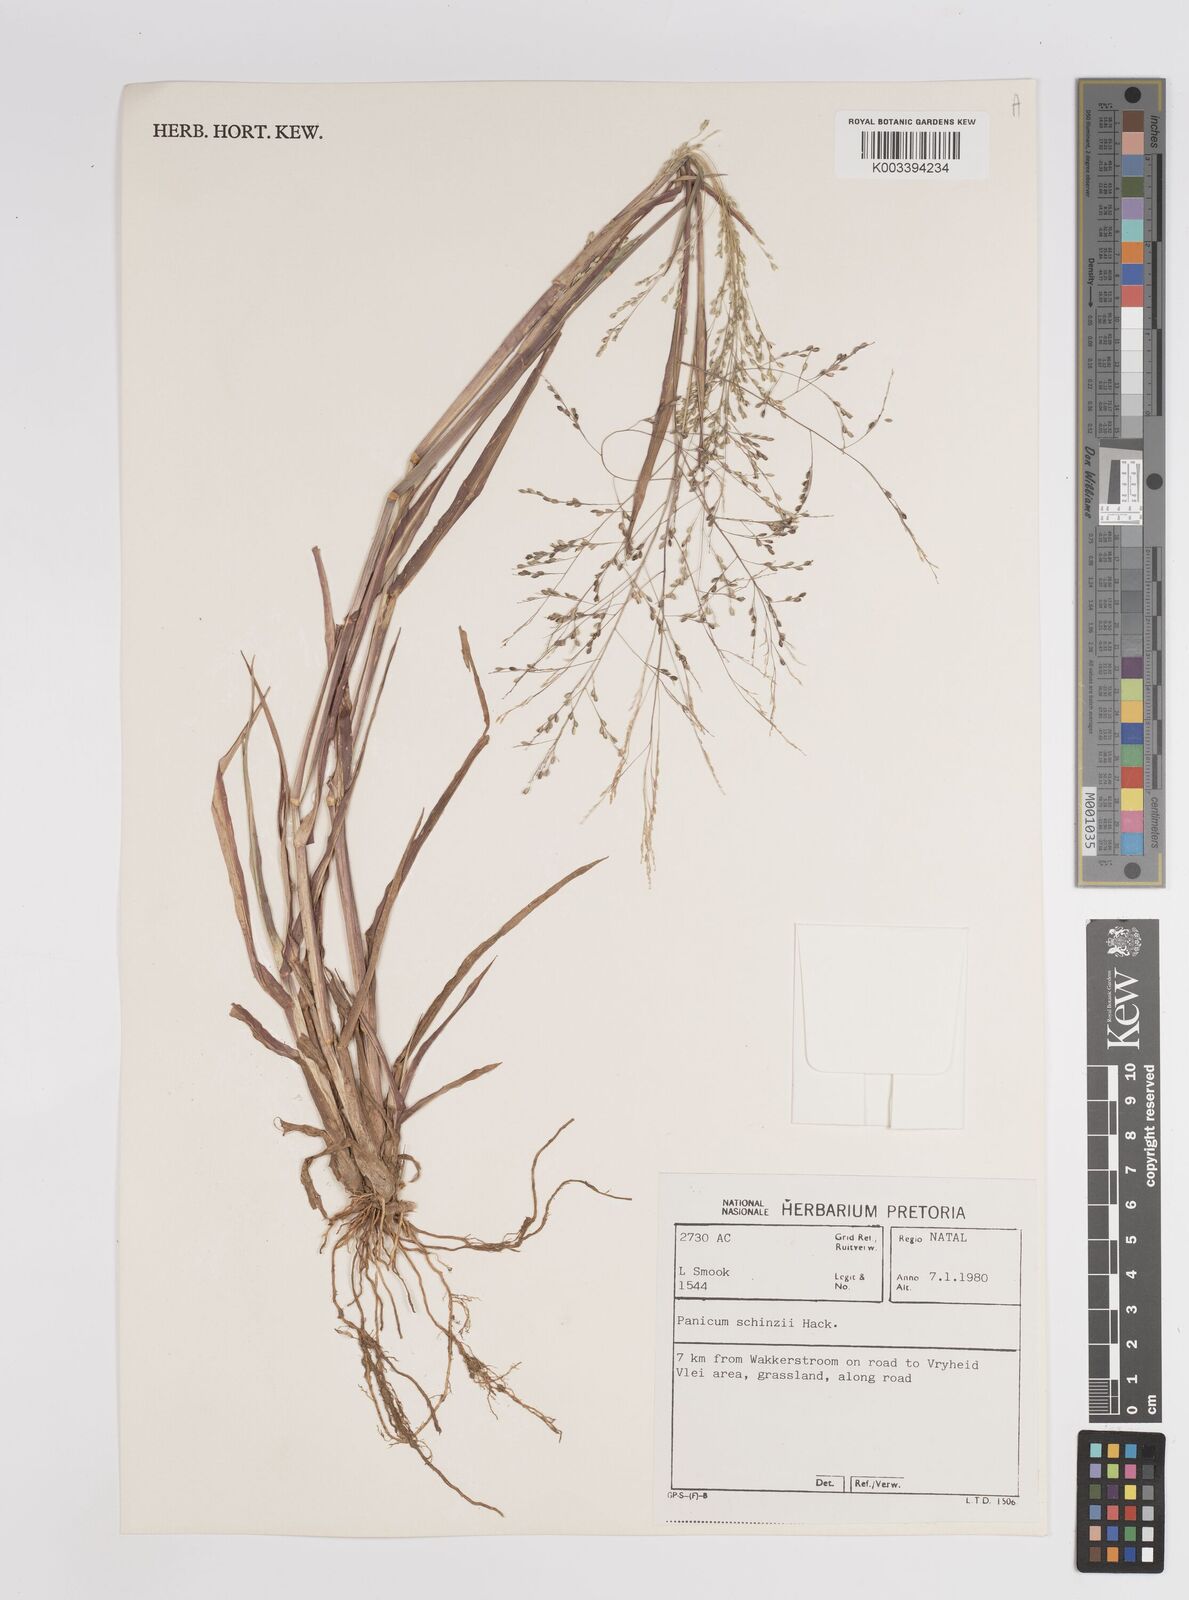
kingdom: Plantae
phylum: Tracheophyta
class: Liliopsida
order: Poales
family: Poaceae
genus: Panicum
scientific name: Panicum schinzii
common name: Sweet grass
